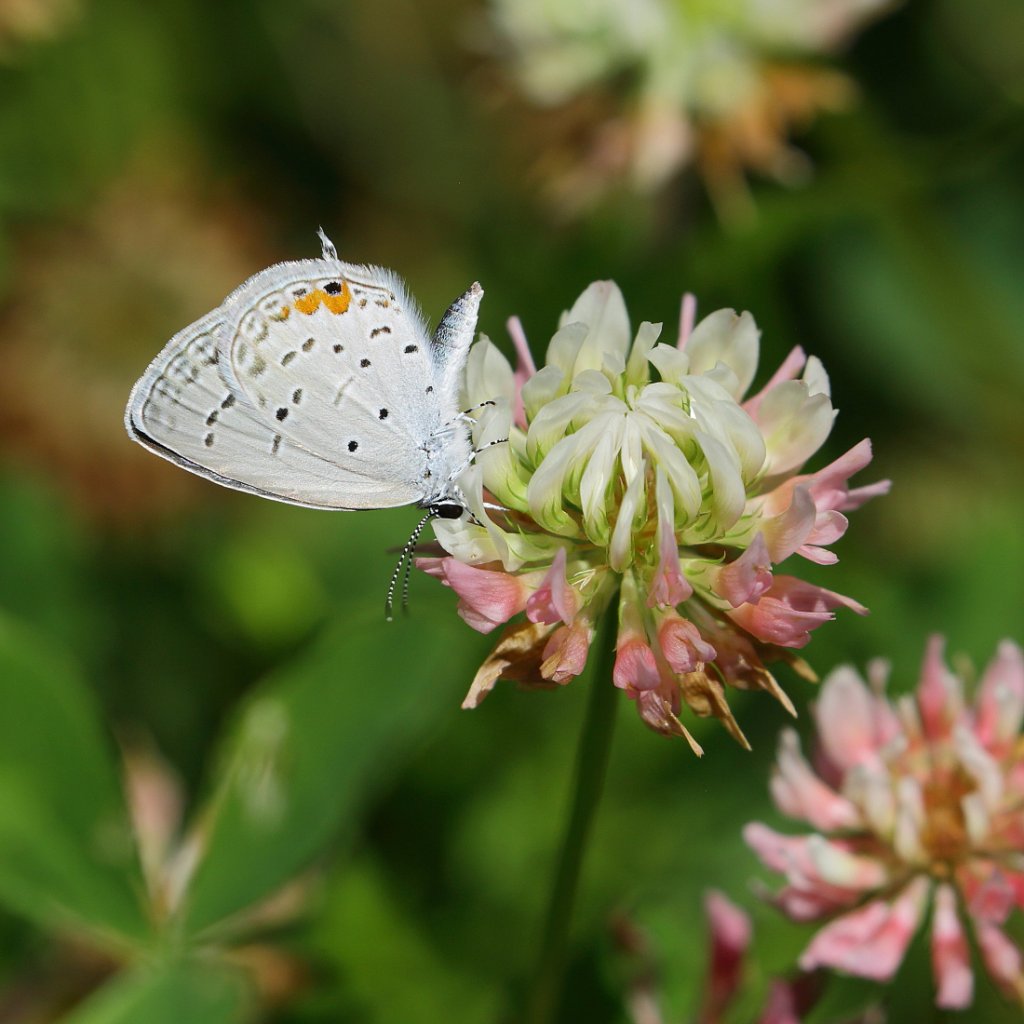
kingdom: Animalia
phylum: Arthropoda
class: Insecta
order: Lepidoptera
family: Lycaenidae
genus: Elkalyce
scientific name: Elkalyce comyntas
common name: Eastern Tailed-Blue
